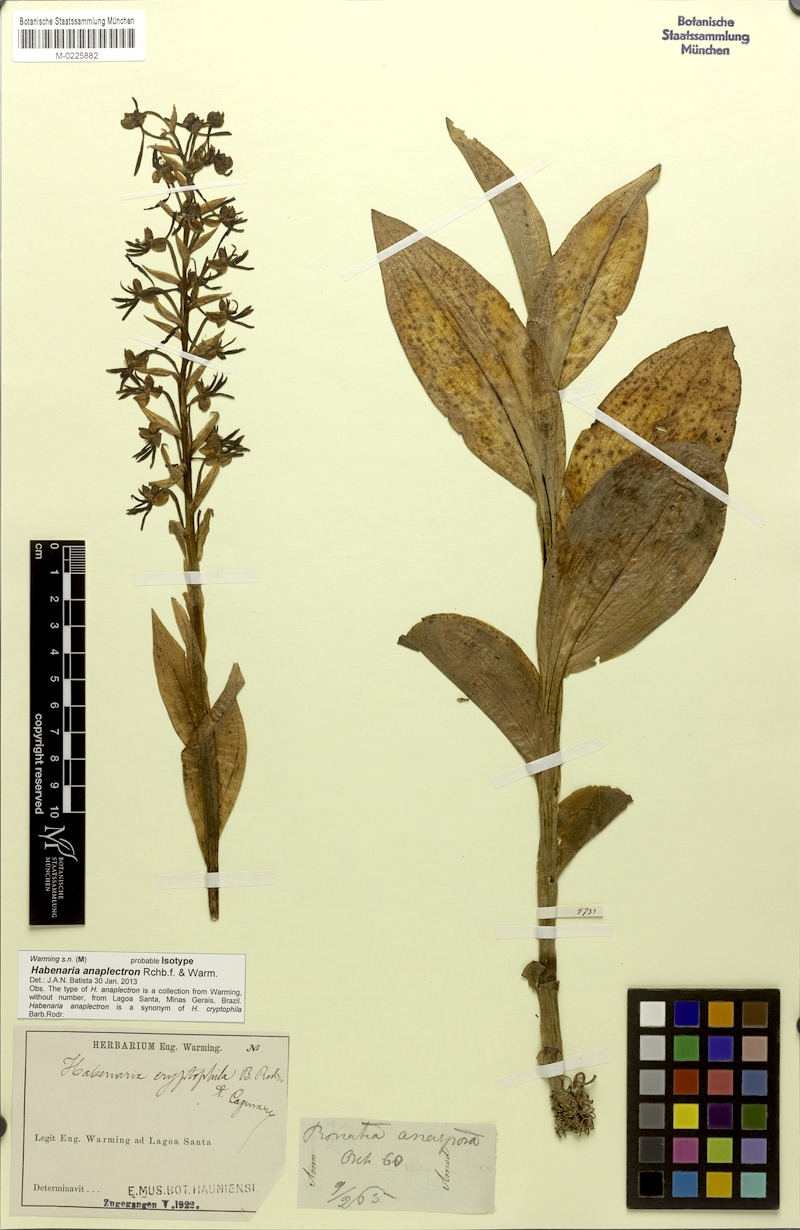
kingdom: Plantae
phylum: Tracheophyta
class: Liliopsida
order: Asparagales
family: Orchidaceae
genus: Habenaria
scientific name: Habenaria cryptophila
